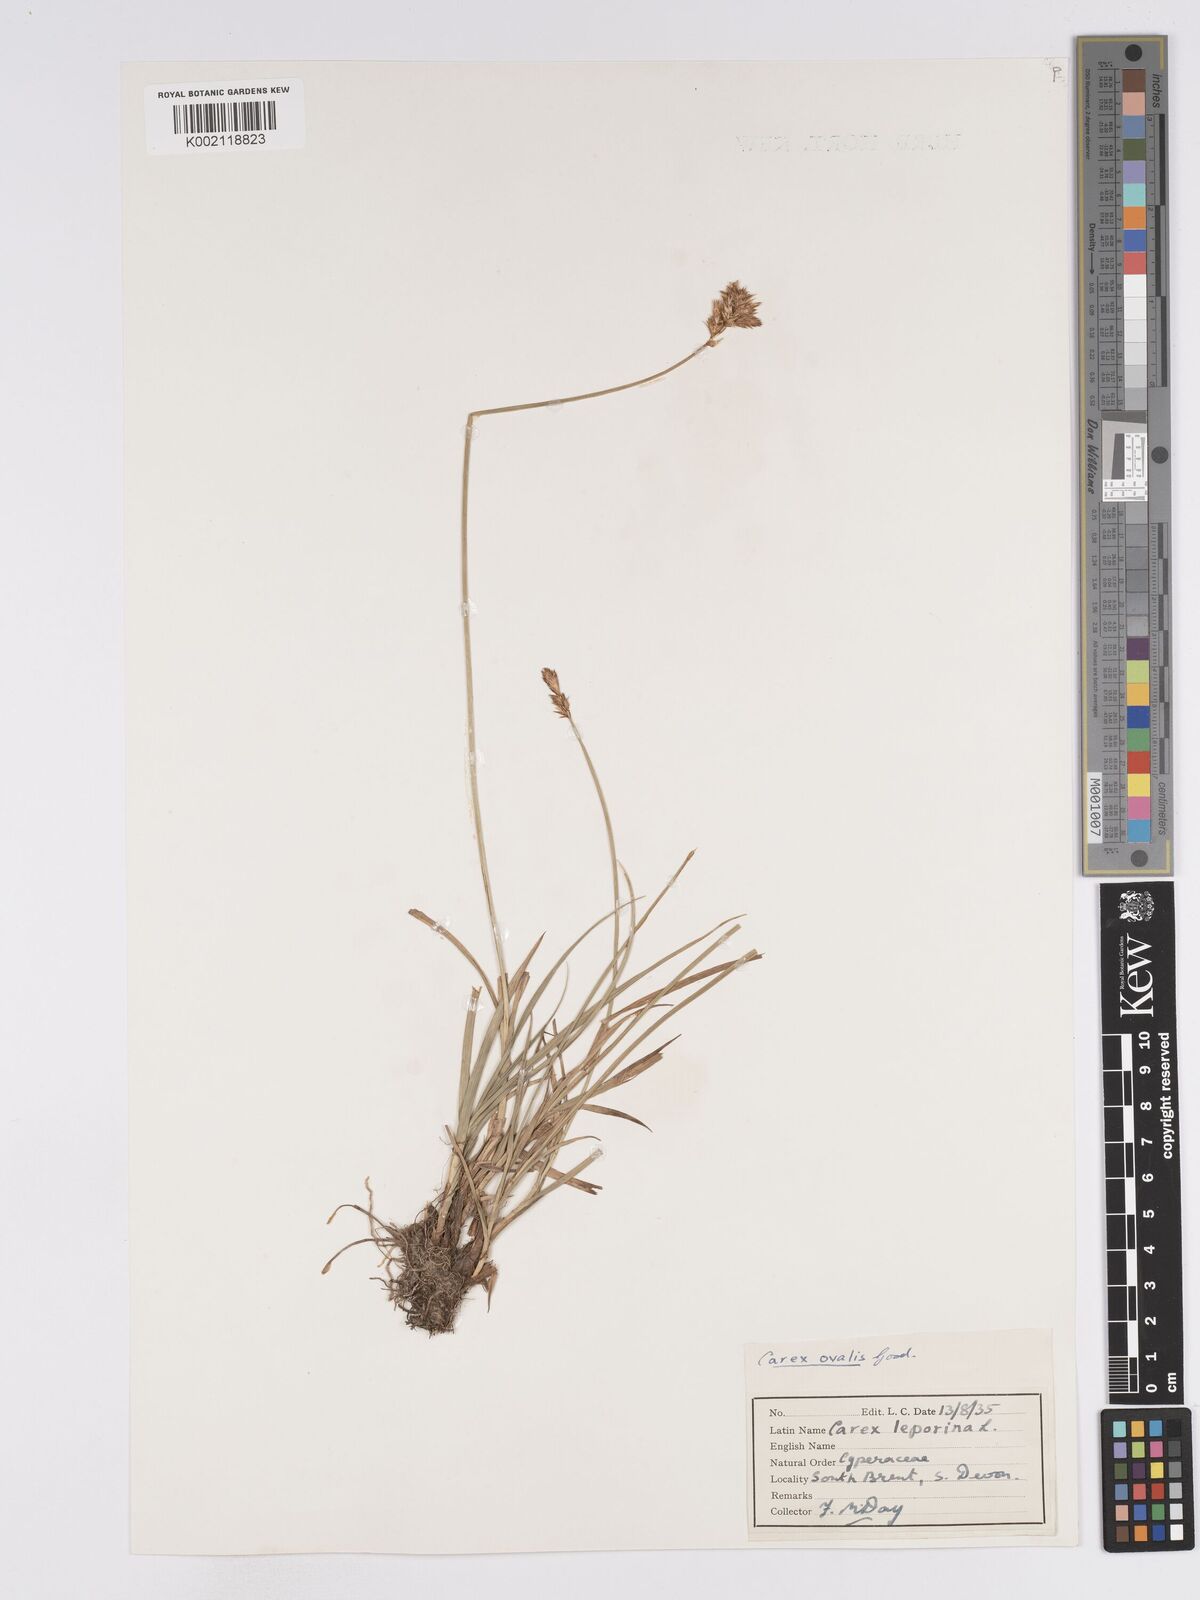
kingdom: Plantae
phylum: Tracheophyta
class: Liliopsida
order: Poales
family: Cyperaceae
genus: Carex
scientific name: Carex leporina
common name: Oval sedge
